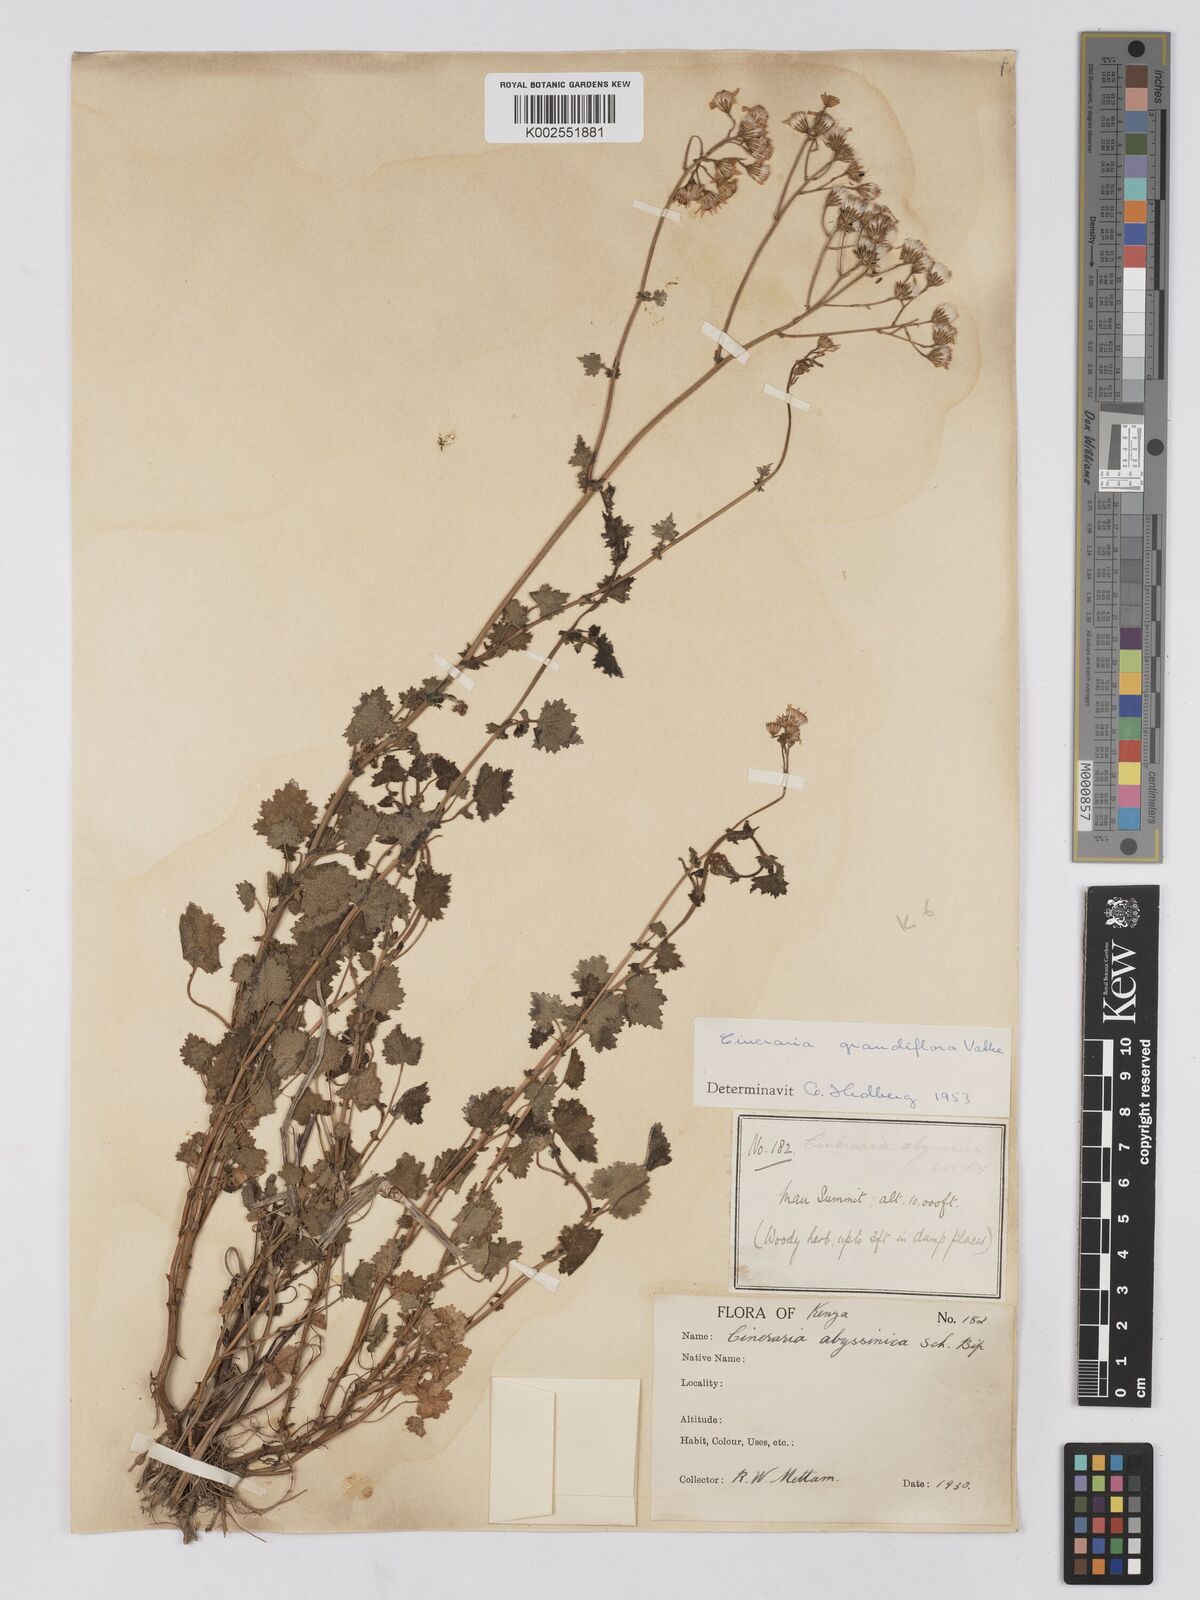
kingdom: Plantae
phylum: Tracheophyta
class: Magnoliopsida
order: Asterales
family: Asteraceae
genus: Cineraria
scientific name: Cineraria deltoidea
